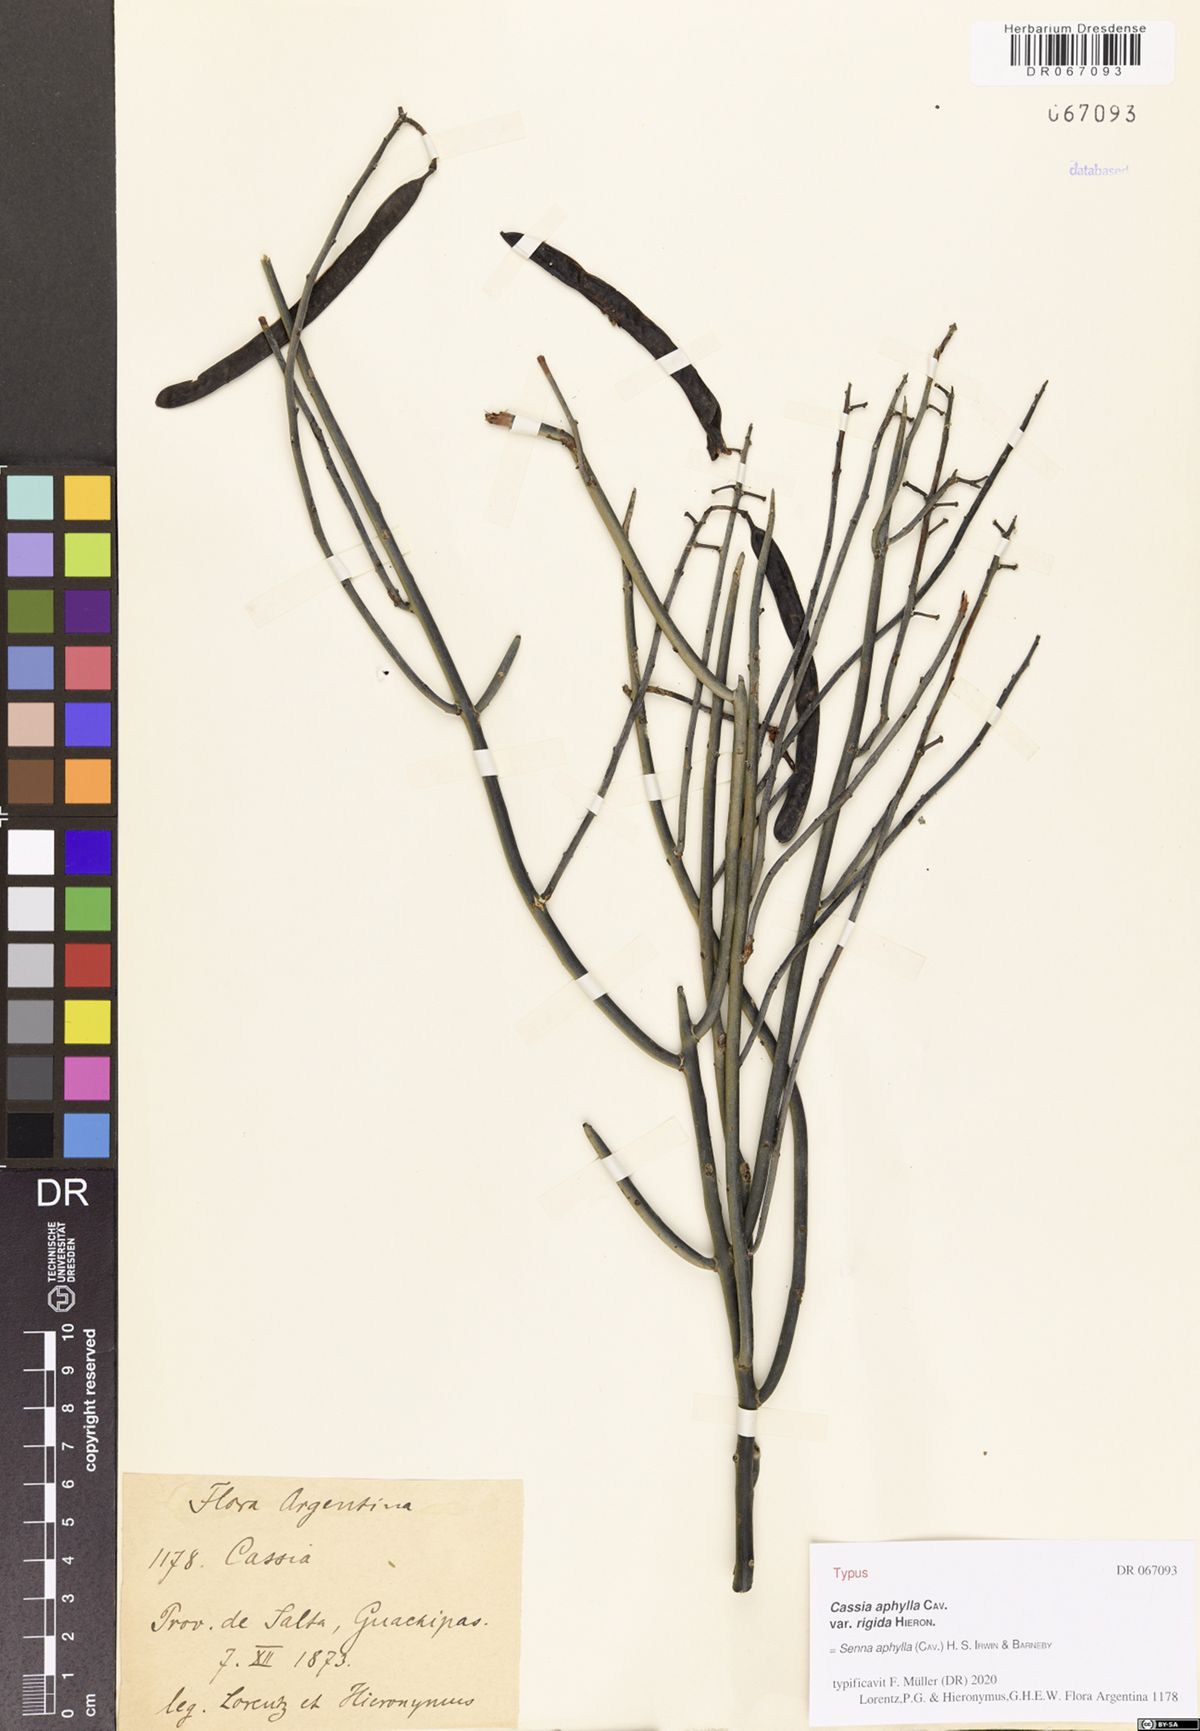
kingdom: Plantae
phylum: Tracheophyta
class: Magnoliopsida
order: Fabales
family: Fabaceae
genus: Senna
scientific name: Senna aphylla
